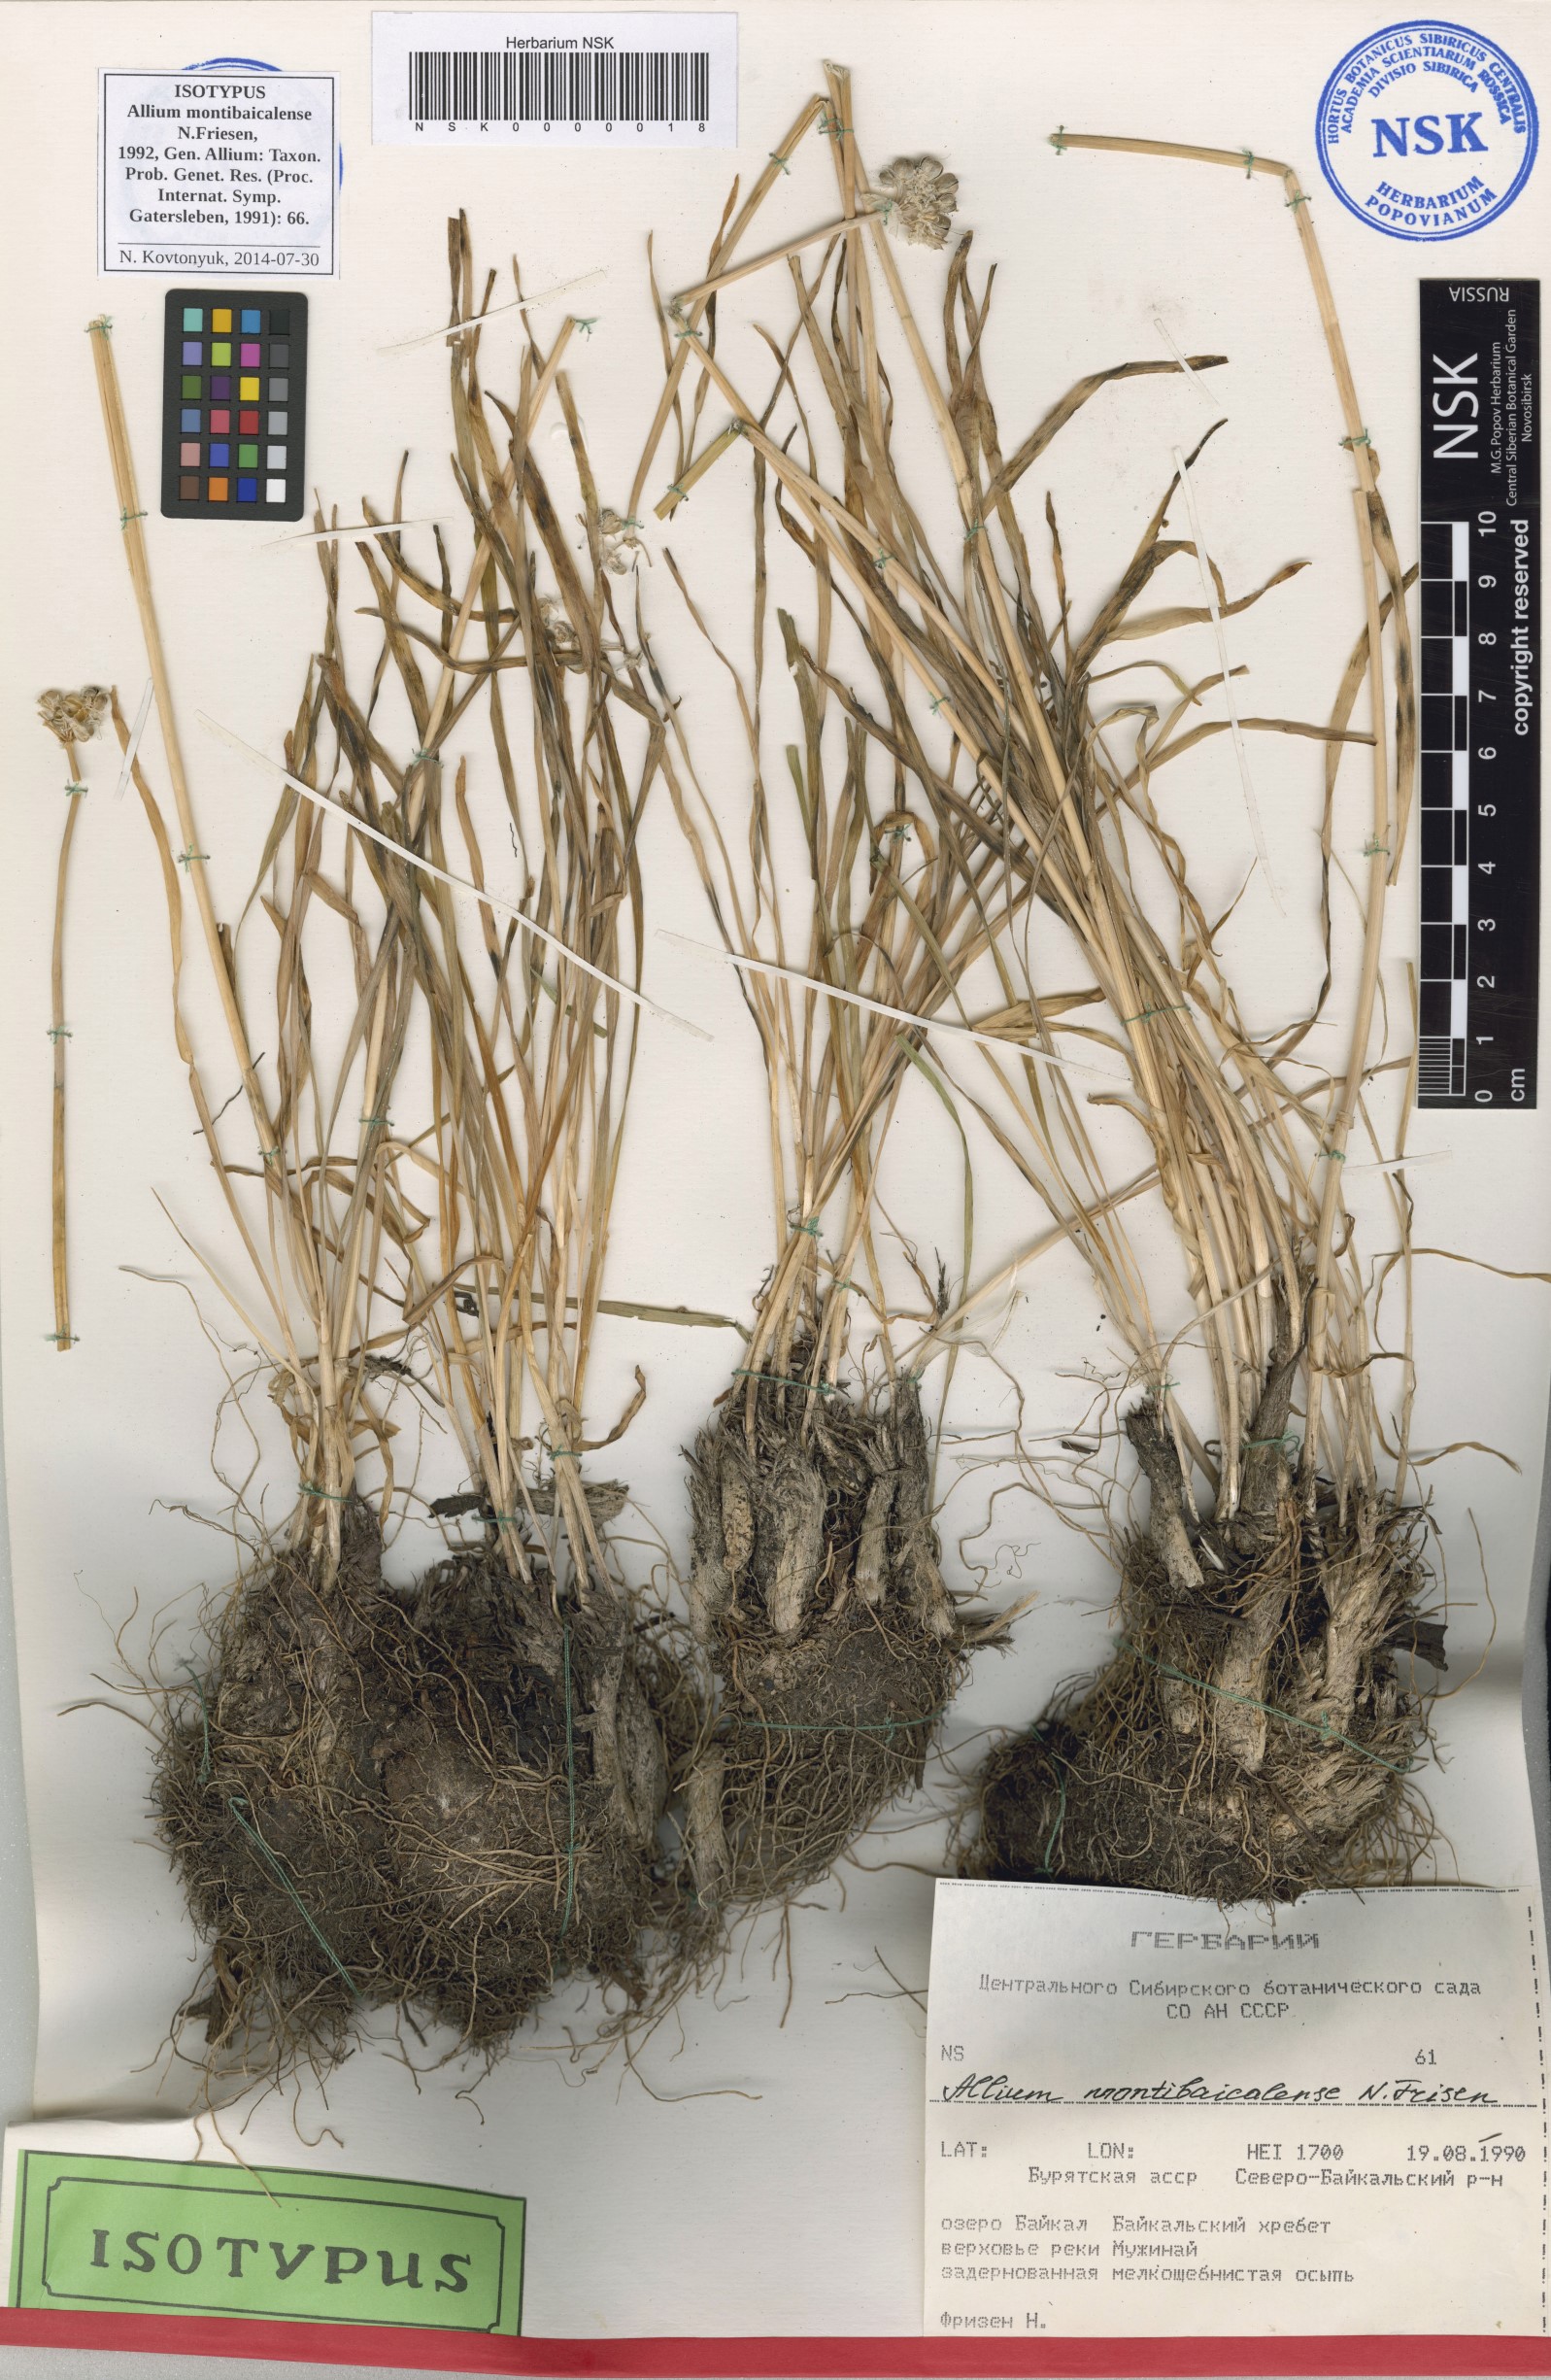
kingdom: Plantae
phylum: Tracheophyta
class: Liliopsida
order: Asparagales
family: Amaryllidaceae
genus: Allium
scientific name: Allium montibaicalense
